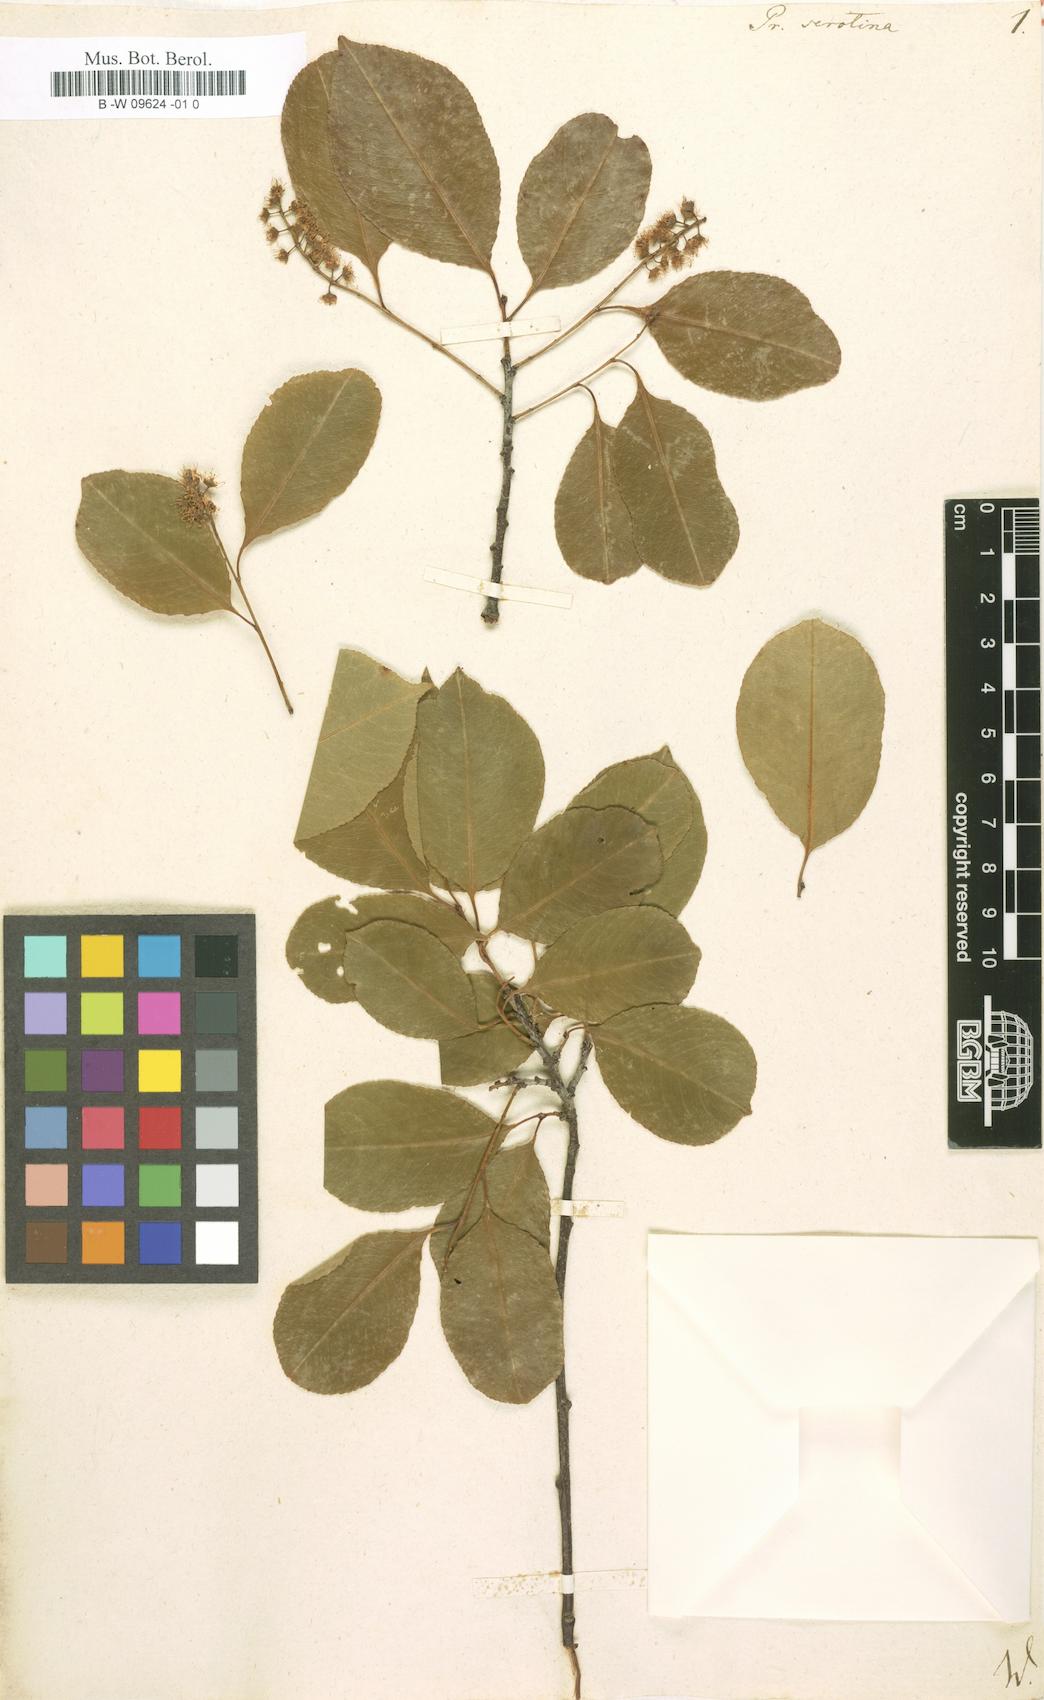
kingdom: Plantae
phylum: Tracheophyta
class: Magnoliopsida
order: Rosales
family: Rosaceae
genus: Prunus
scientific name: Prunus serotina
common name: Black cherry
